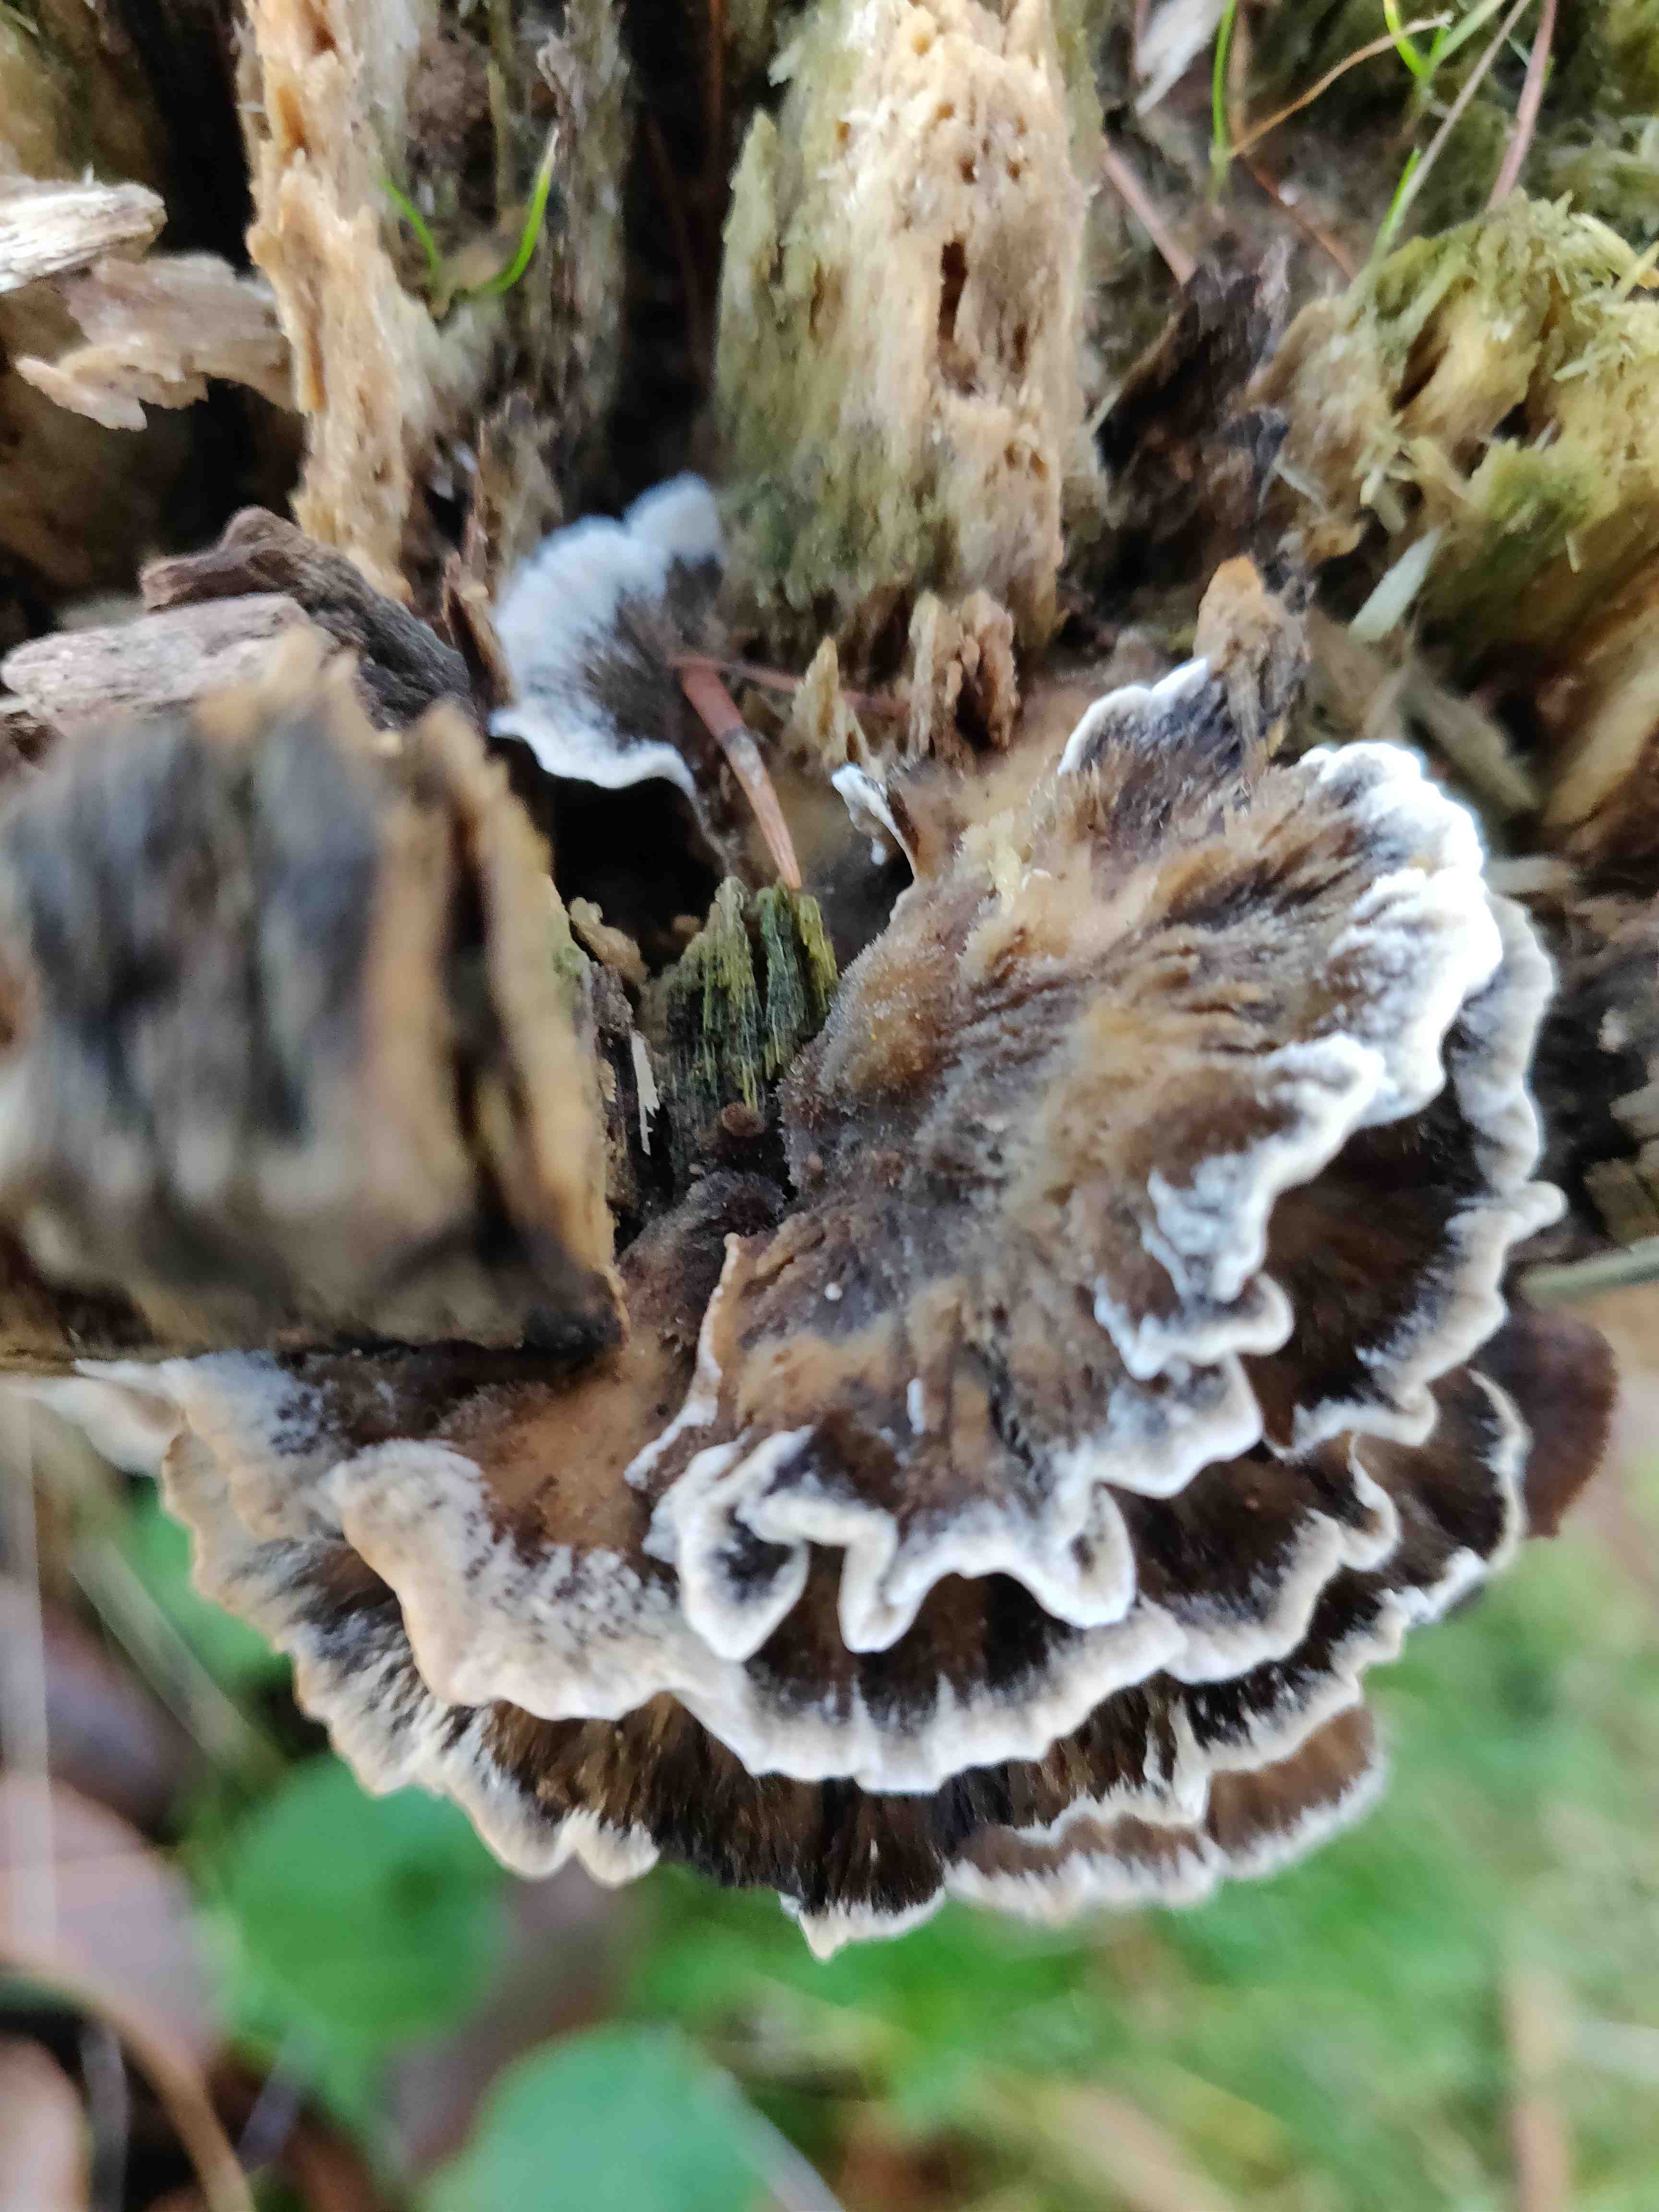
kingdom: Fungi
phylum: Basidiomycota
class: Agaricomycetes
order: Polyporales
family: Phanerochaetaceae
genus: Bjerkandera
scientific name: Bjerkandera adusta
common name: sveden sodporesvamp
